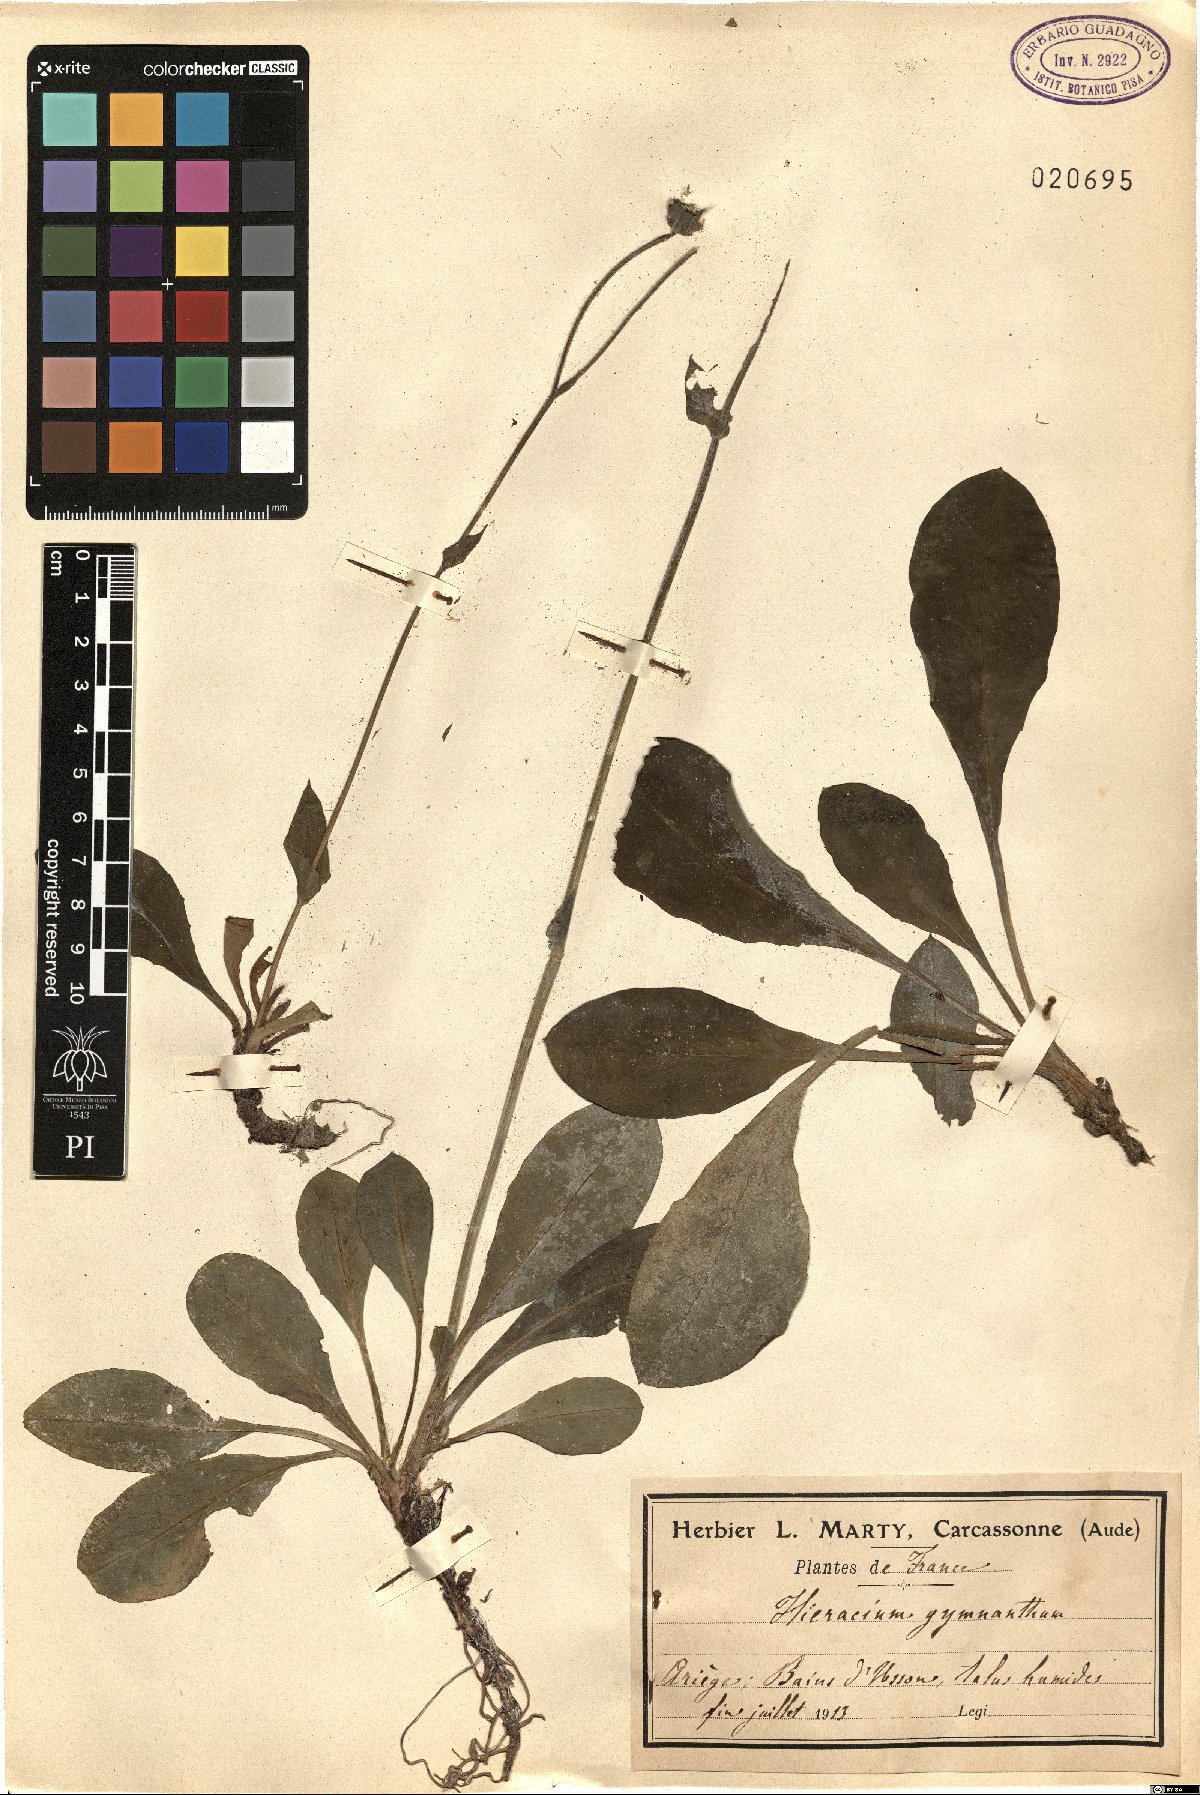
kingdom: Plantae
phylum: Tracheophyta
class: Magnoliopsida
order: Asterales
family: Asteraceae
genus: Hieracium
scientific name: Hieracium
